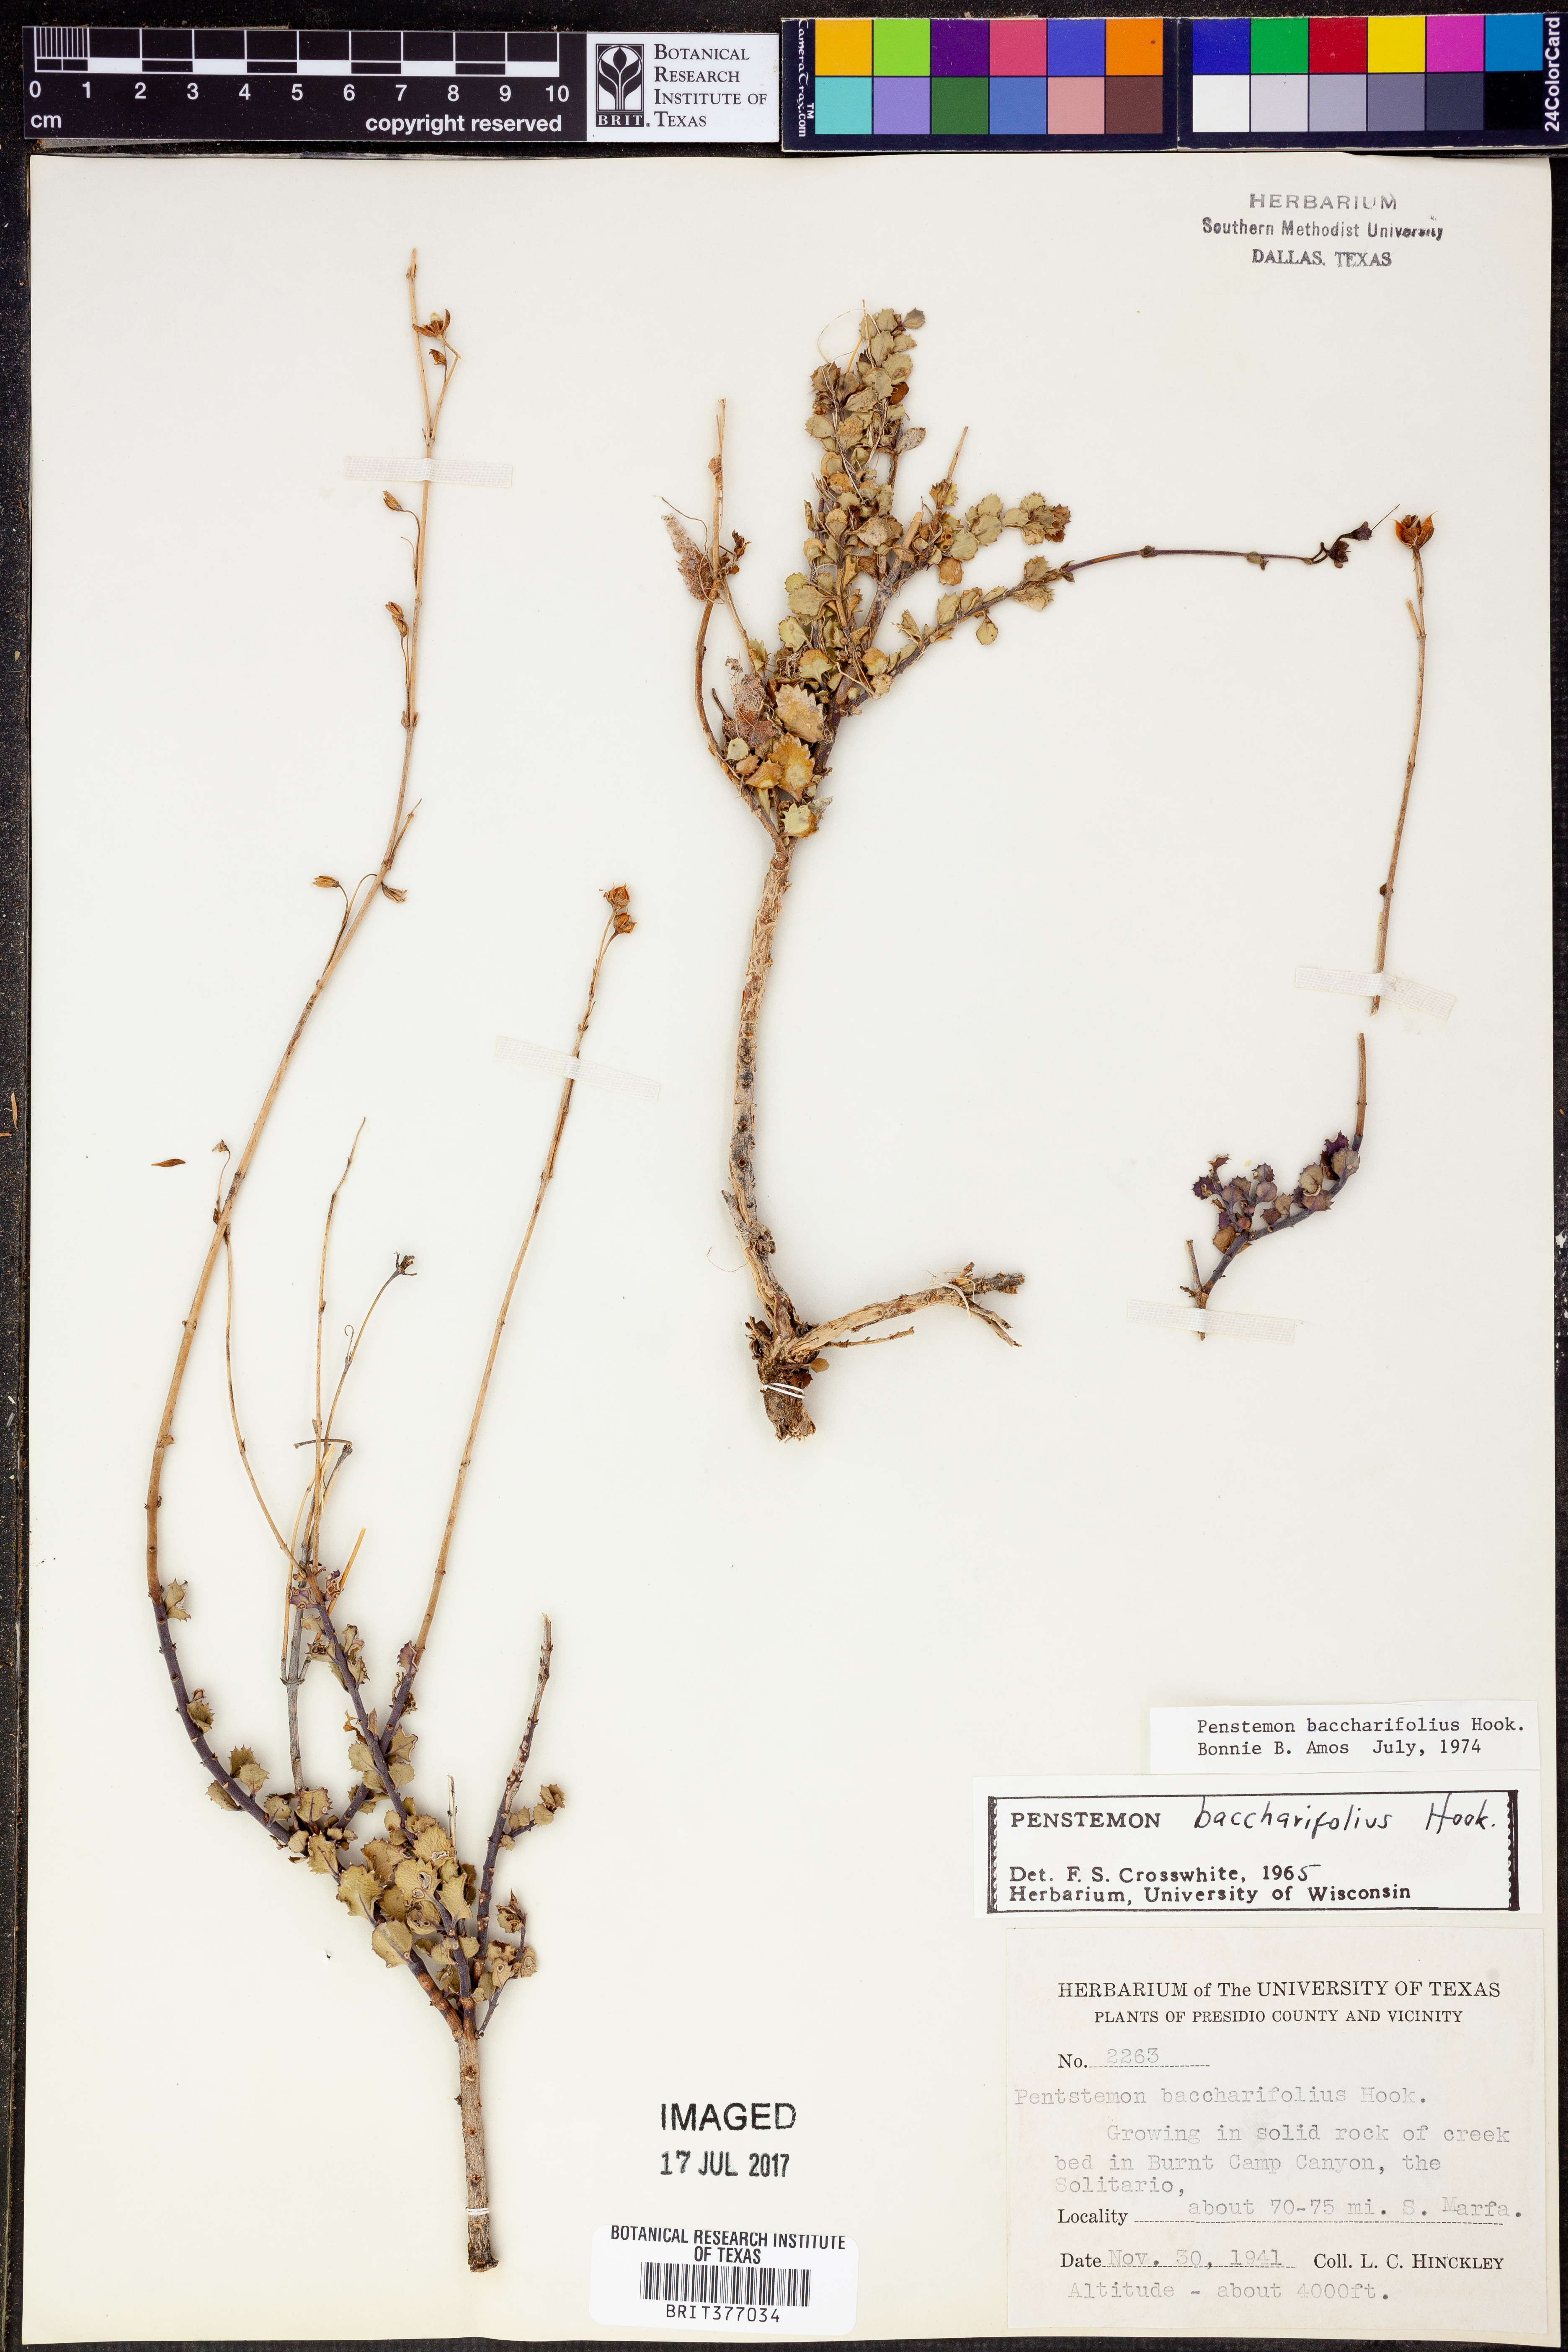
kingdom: Plantae
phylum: Tracheophyta
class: Magnoliopsida
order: Lamiales
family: Plantaginaceae
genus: Penstemon
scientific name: Penstemon baccharifolius
